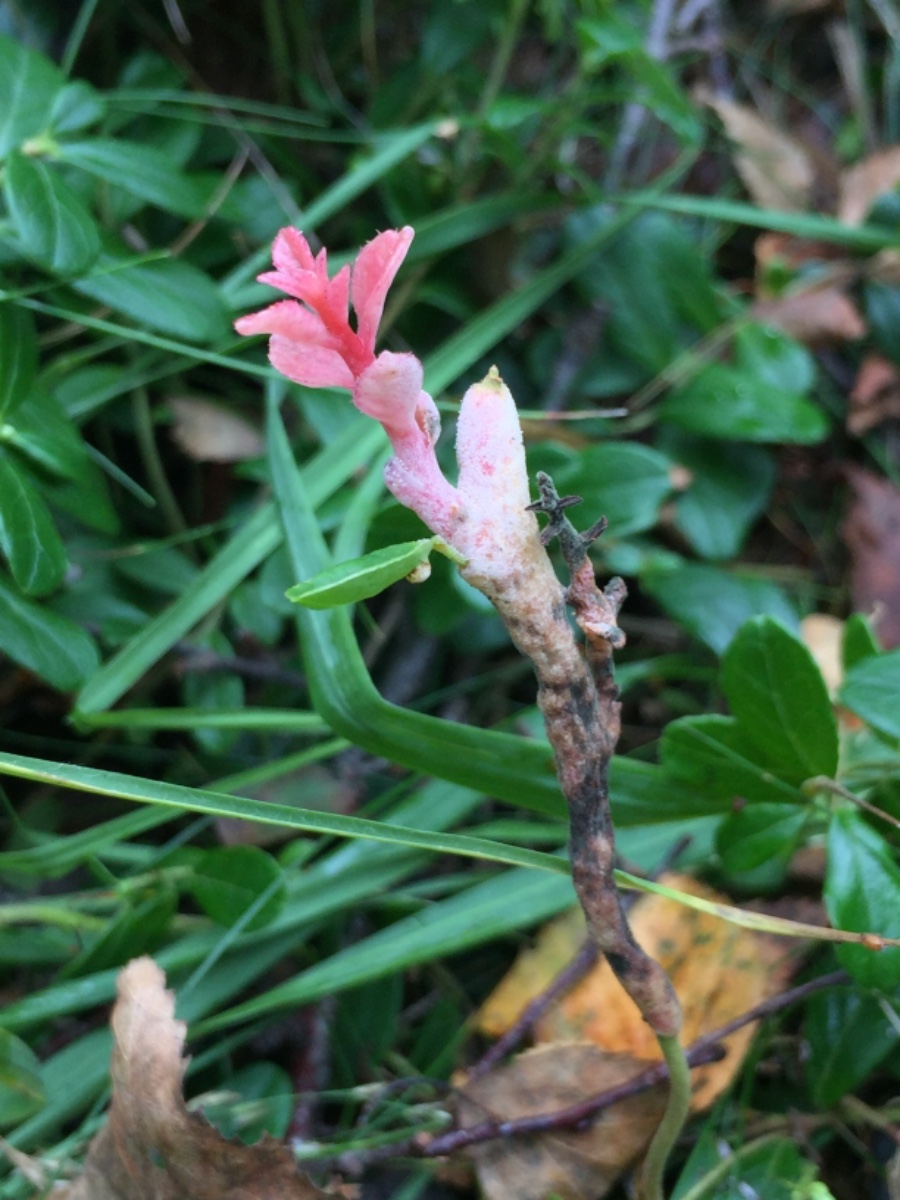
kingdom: Fungi
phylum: Basidiomycota
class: Exobasidiomycetes
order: Exobasidiales
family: Exobasidiaceae
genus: Exobasidium
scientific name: Exobasidium vaccinii
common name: tyttebærblad-bøllesvamp
